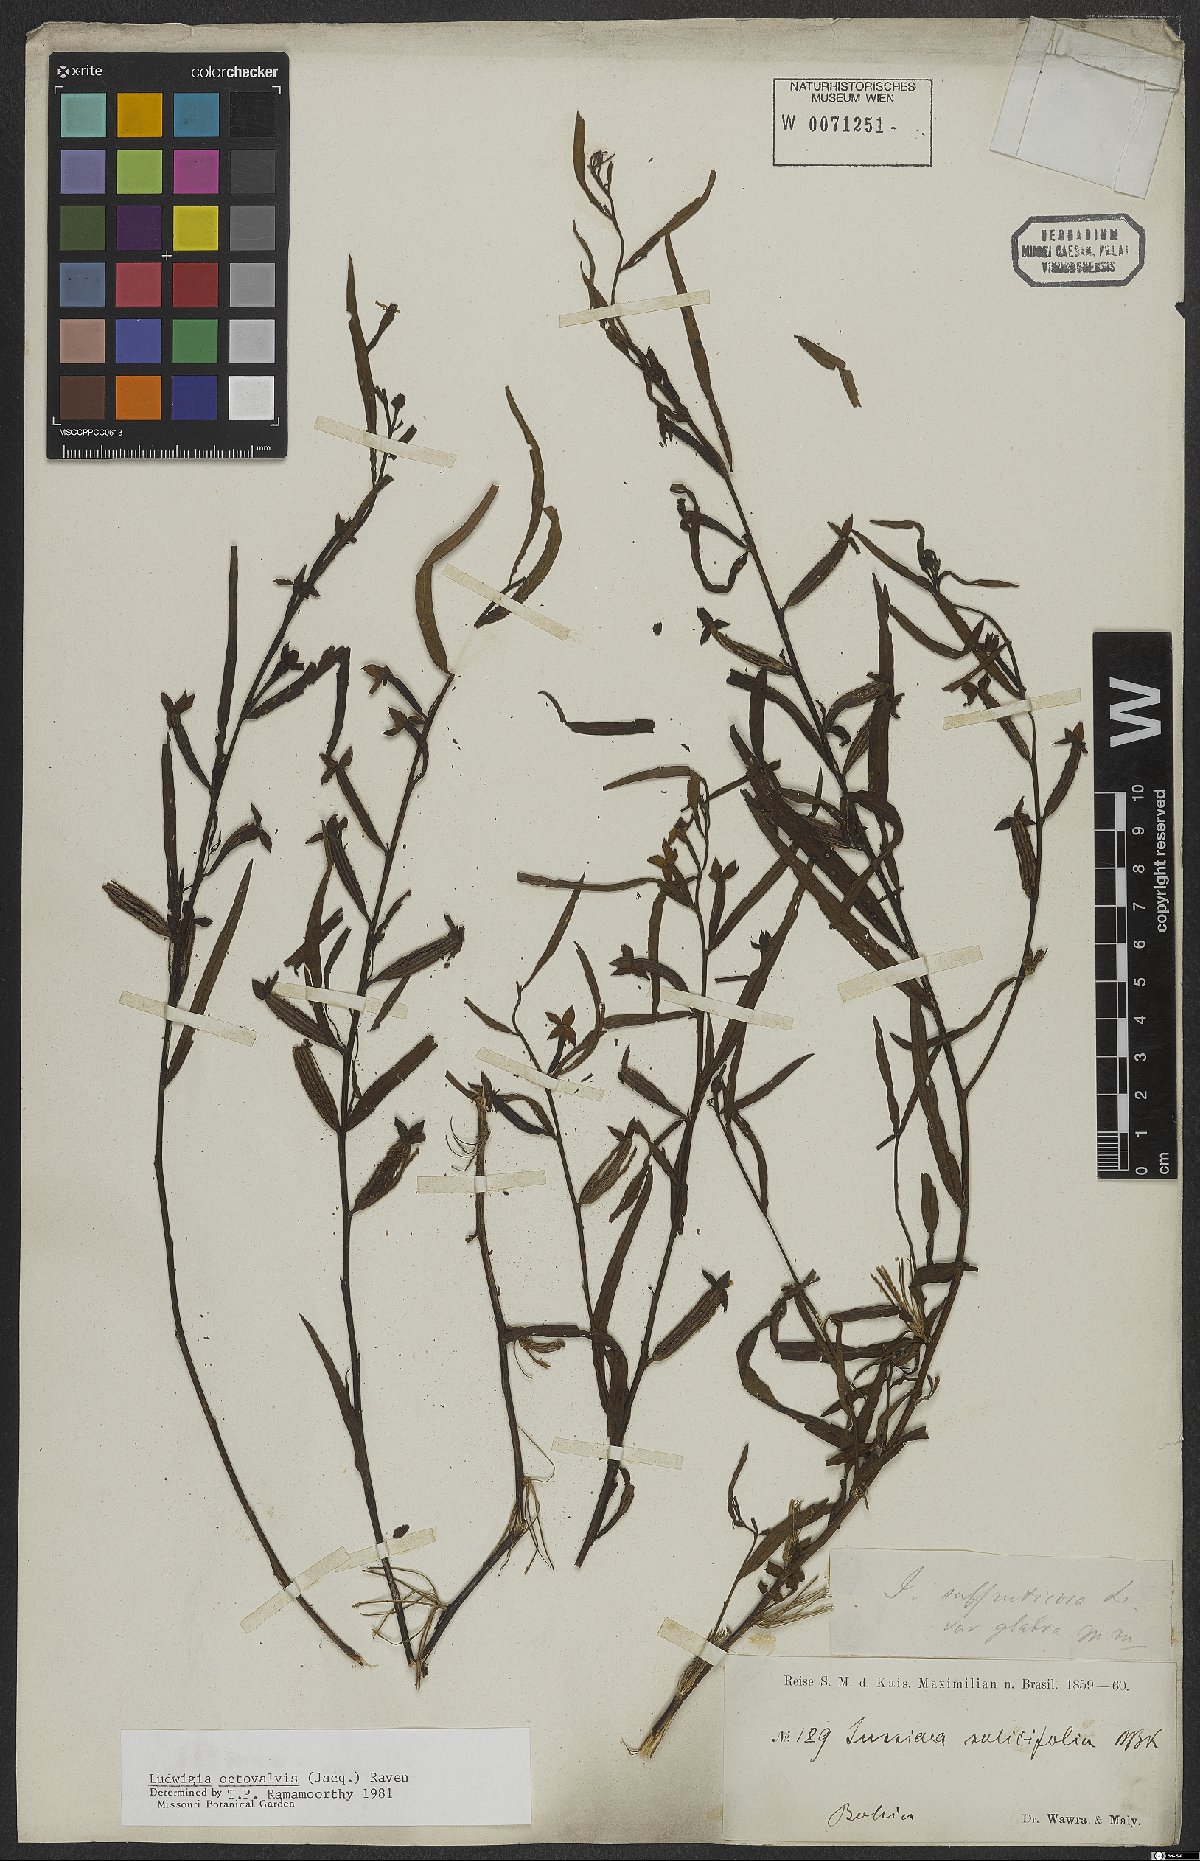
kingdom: Plantae
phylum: Tracheophyta
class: Magnoliopsida
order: Myrtales
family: Onagraceae
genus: Ludwigia
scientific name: Ludwigia octovalvis
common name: Water-primrose
